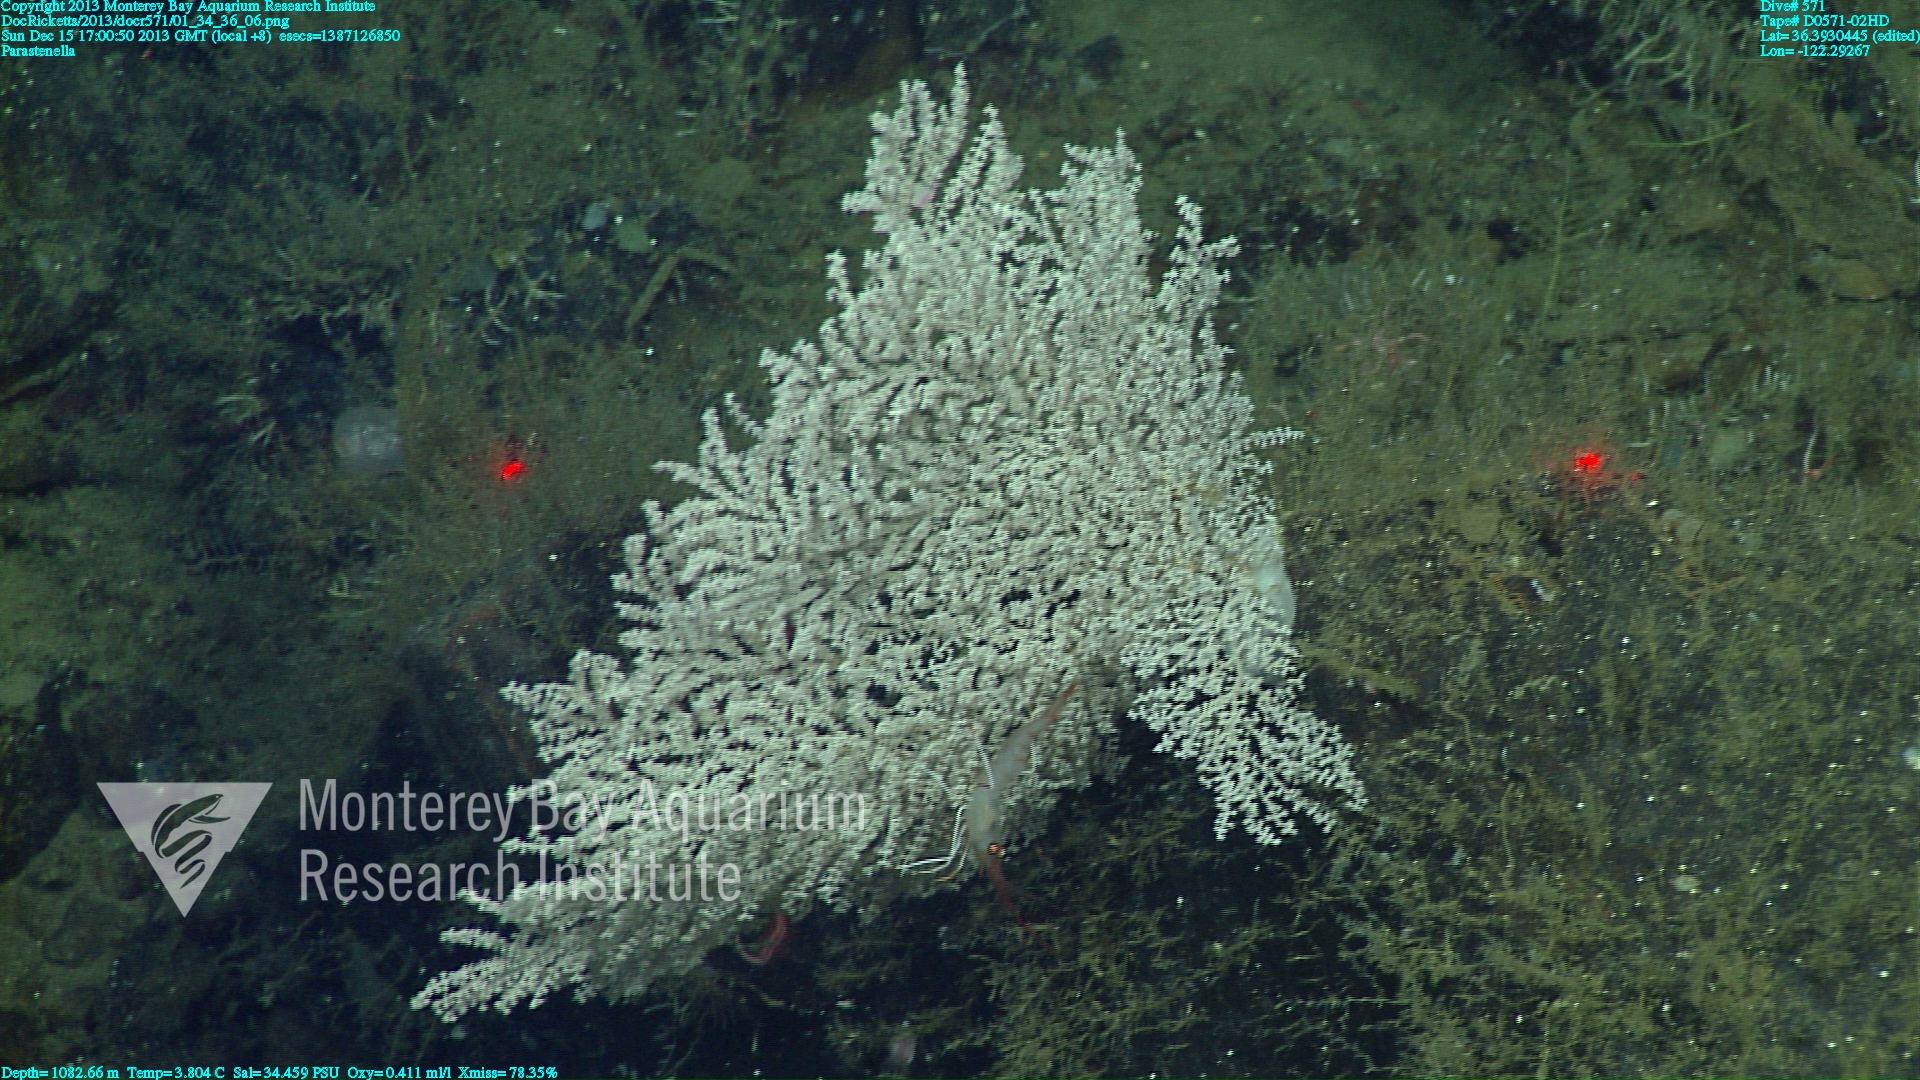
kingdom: Animalia
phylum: Cnidaria
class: Anthozoa
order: Scleralcyonacea
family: Primnoidae
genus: Parastenella
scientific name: Parastenella
